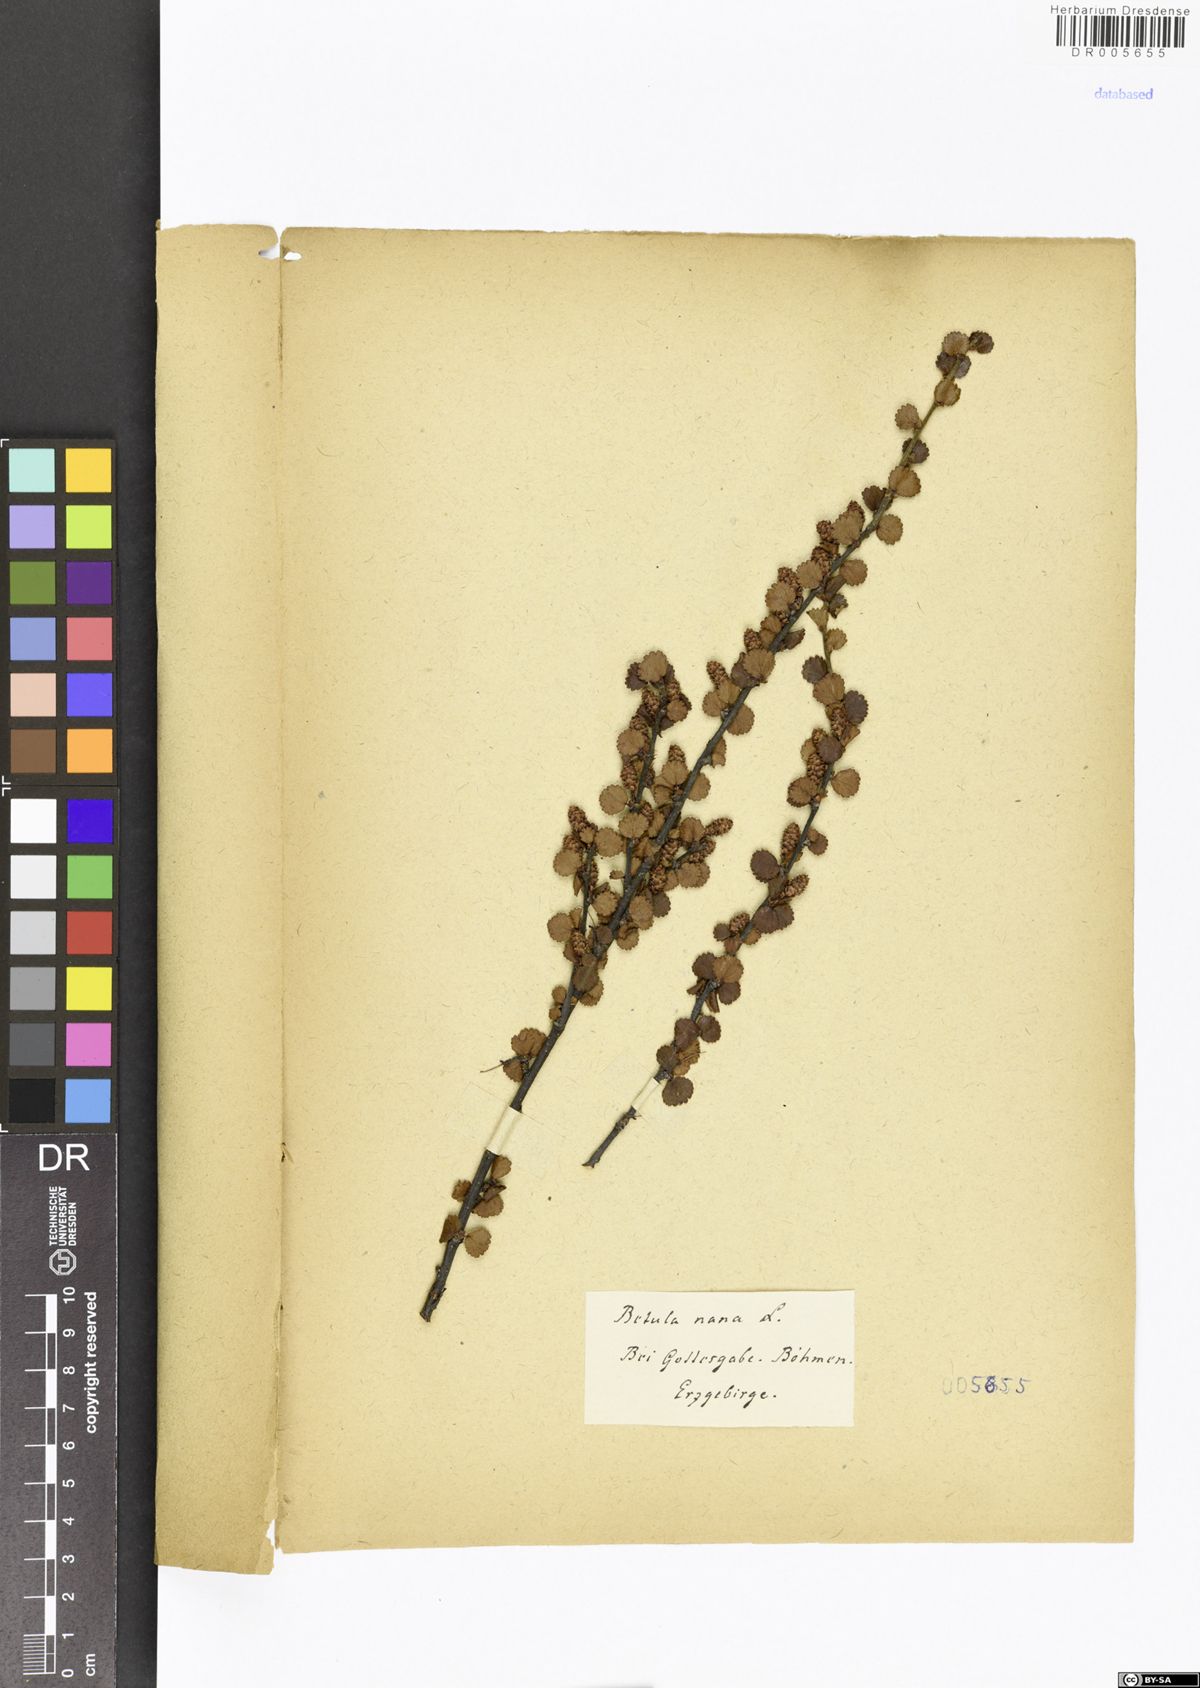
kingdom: Plantae
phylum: Tracheophyta
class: Magnoliopsida
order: Fagales
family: Betulaceae
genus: Betula
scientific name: Betula nana
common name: Arctic dwarf birch
